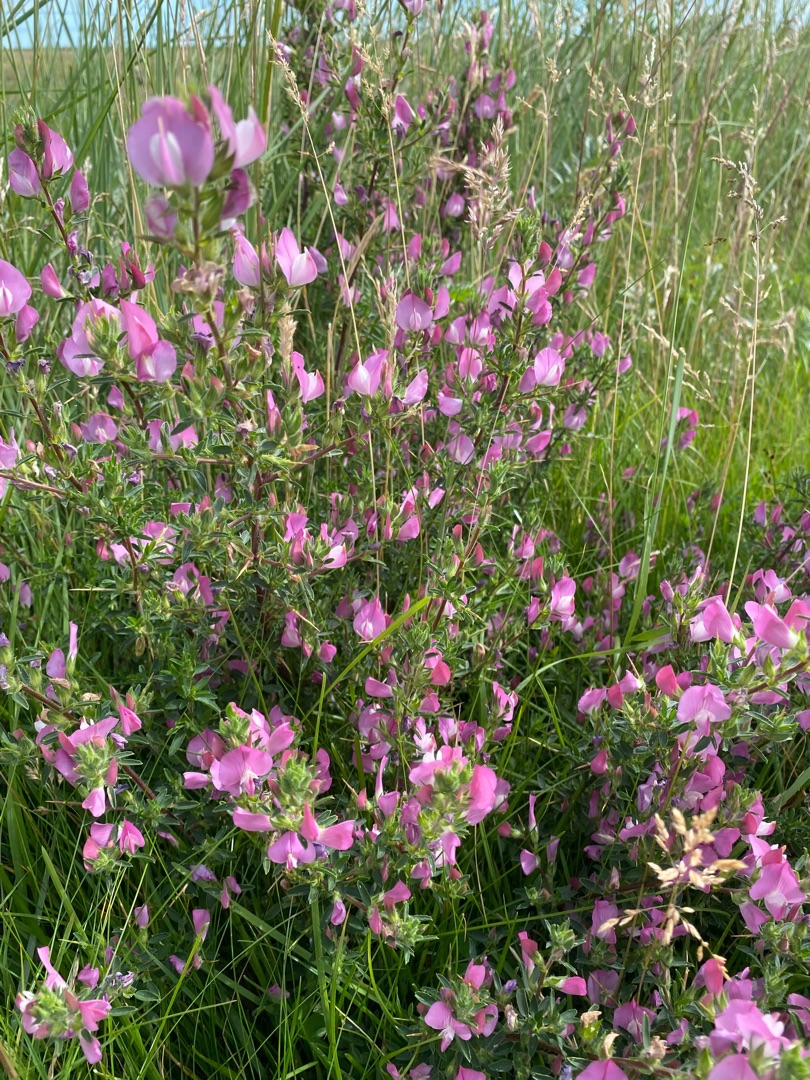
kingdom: Plantae
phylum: Tracheophyta
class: Magnoliopsida
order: Fabales
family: Fabaceae
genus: Ononis
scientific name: Ononis spinosa
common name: Strand-krageklo
